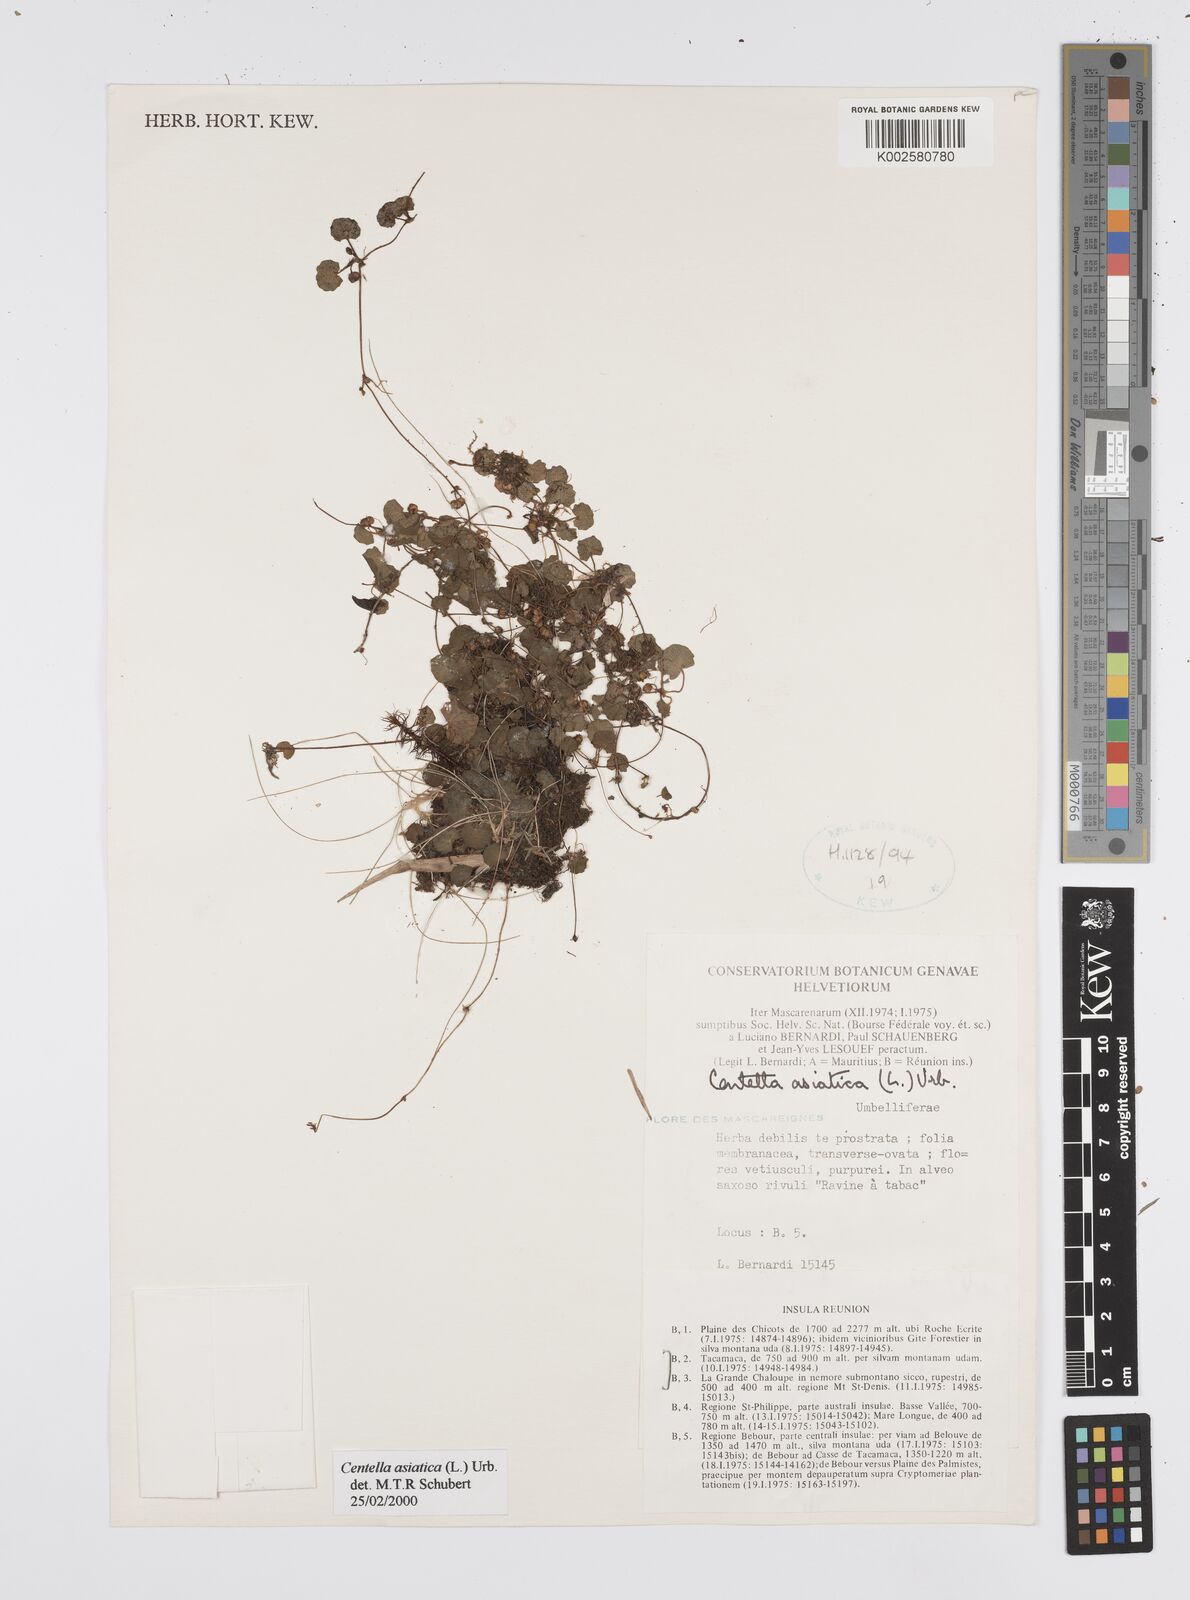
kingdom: Plantae
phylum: Tracheophyta
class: Magnoliopsida
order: Apiales
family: Apiaceae
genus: Centella
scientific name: Centella asiatica
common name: Spadeleaf
